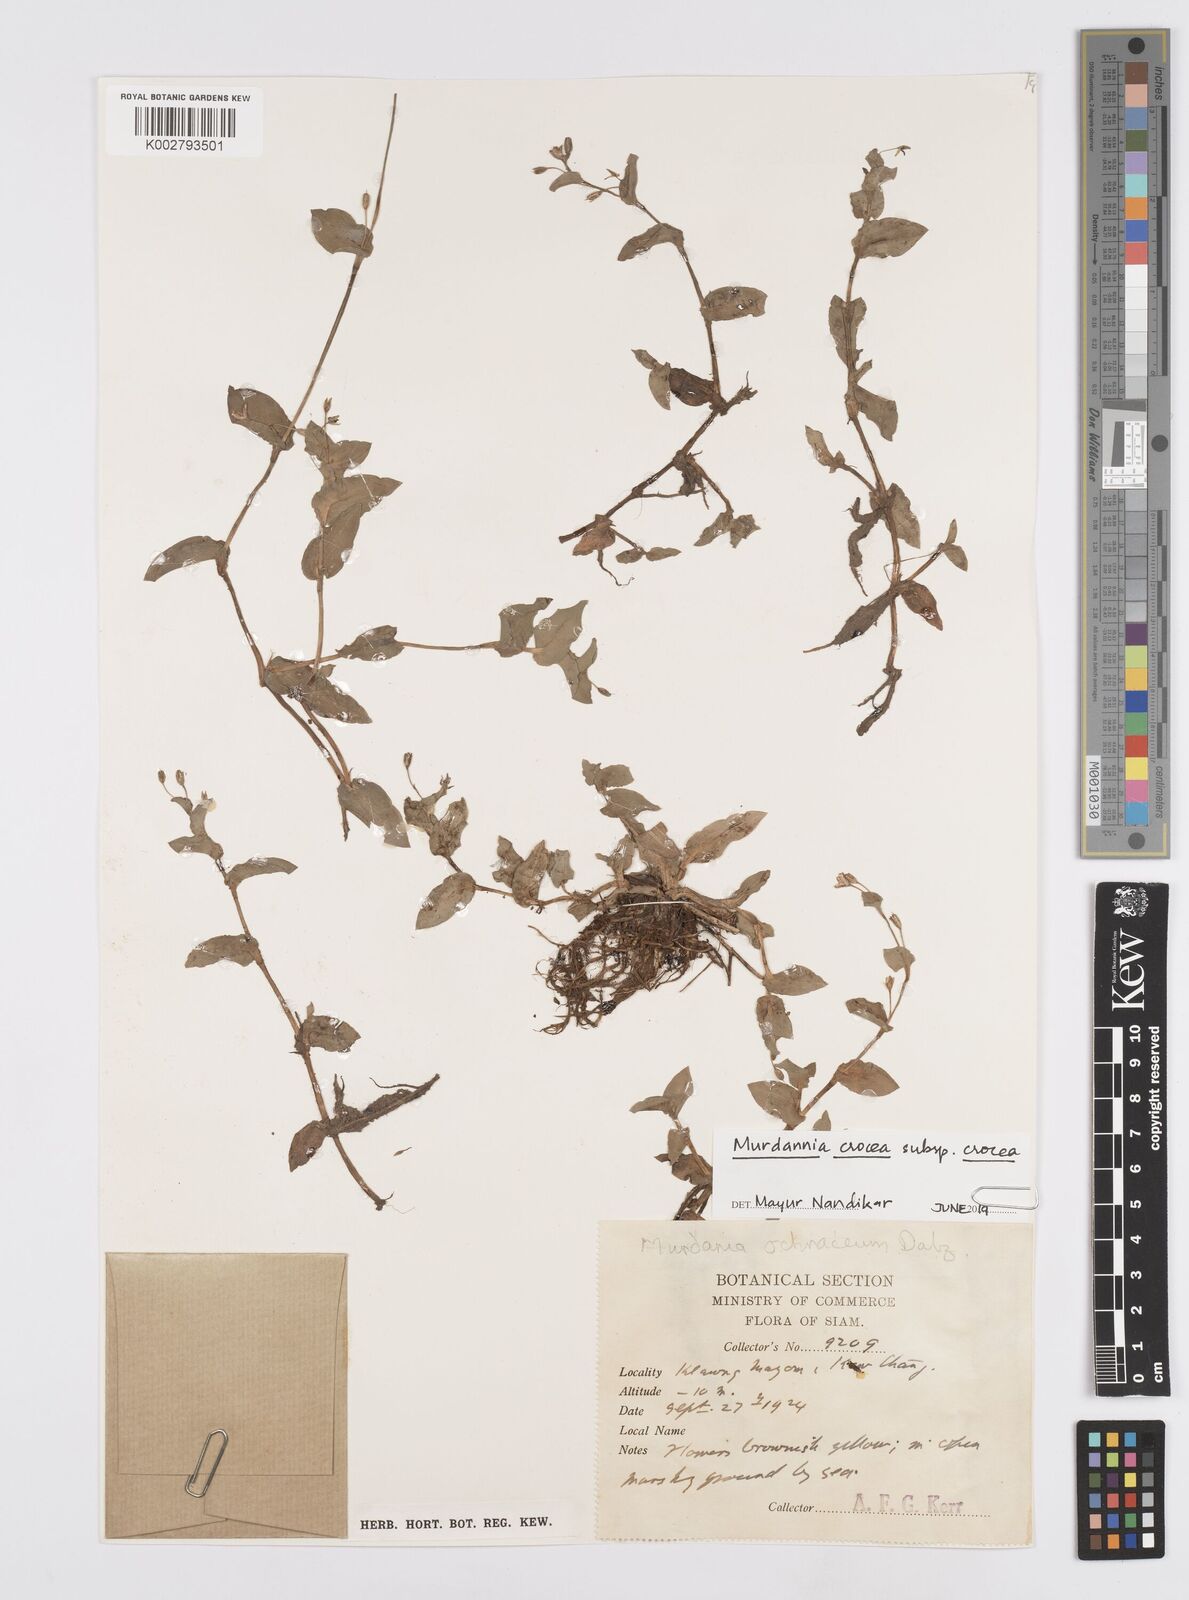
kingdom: Plantae
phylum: Tracheophyta
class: Liliopsida
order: Commelinales
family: Commelinaceae
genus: Murdannia
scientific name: Murdannia crocea
